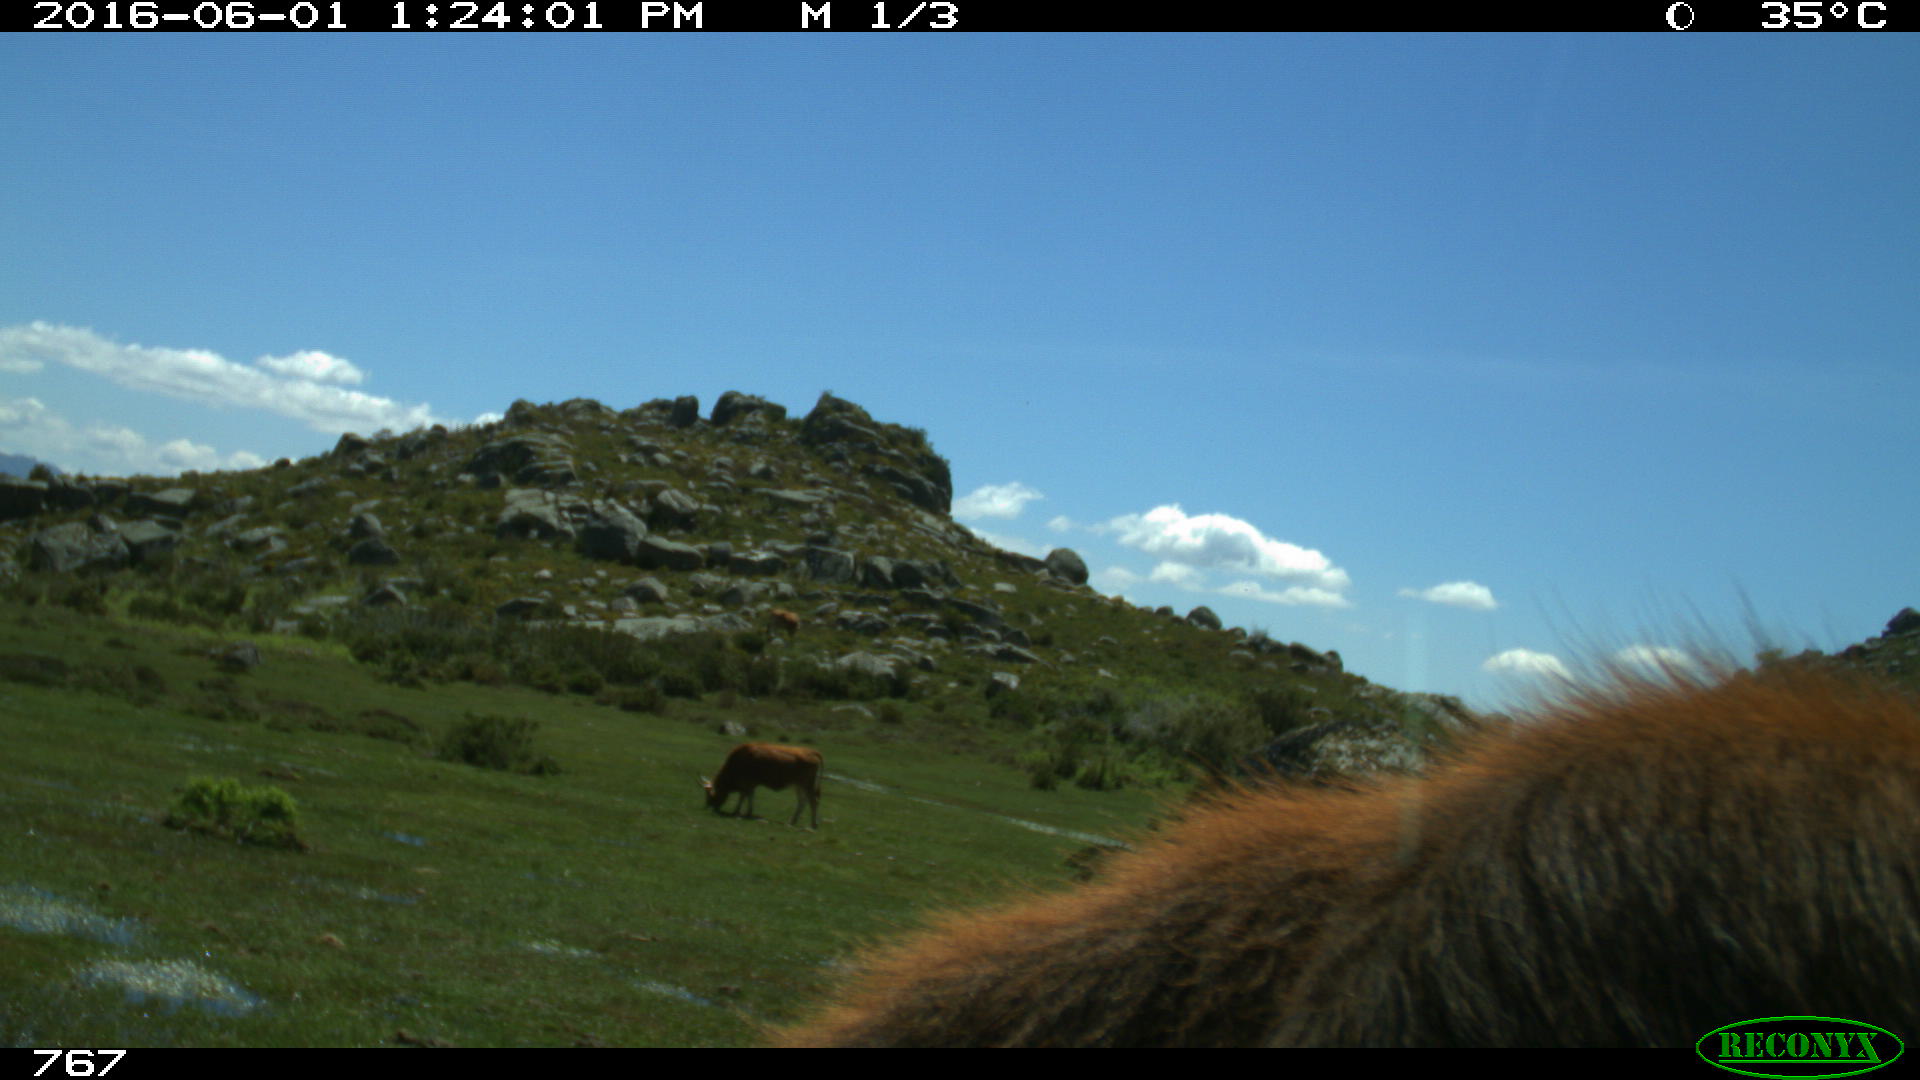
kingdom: Animalia
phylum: Chordata
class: Mammalia
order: Artiodactyla
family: Bovidae
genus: Bos
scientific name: Bos taurus
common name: Domesticated cattle
